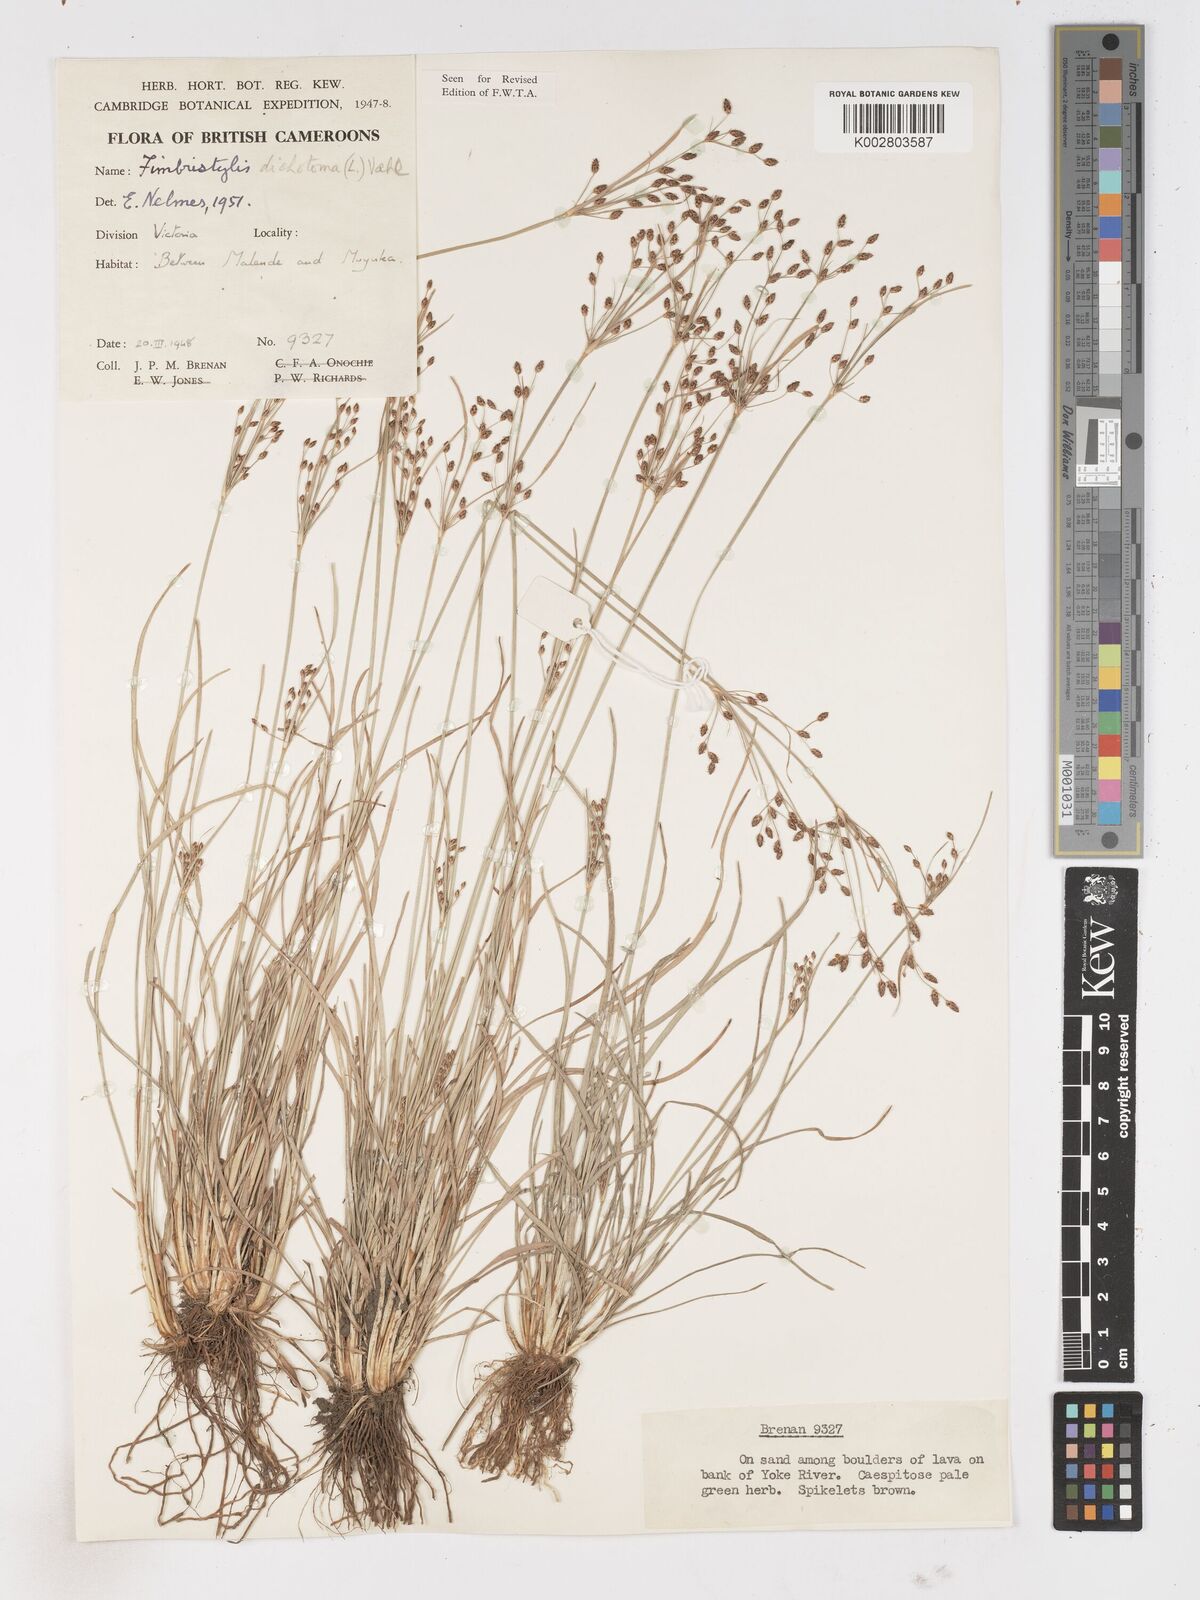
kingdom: Plantae
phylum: Tracheophyta
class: Liliopsida
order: Poales
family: Cyperaceae
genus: Fimbristylis
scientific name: Fimbristylis dichotoma
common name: Forked fimbry
